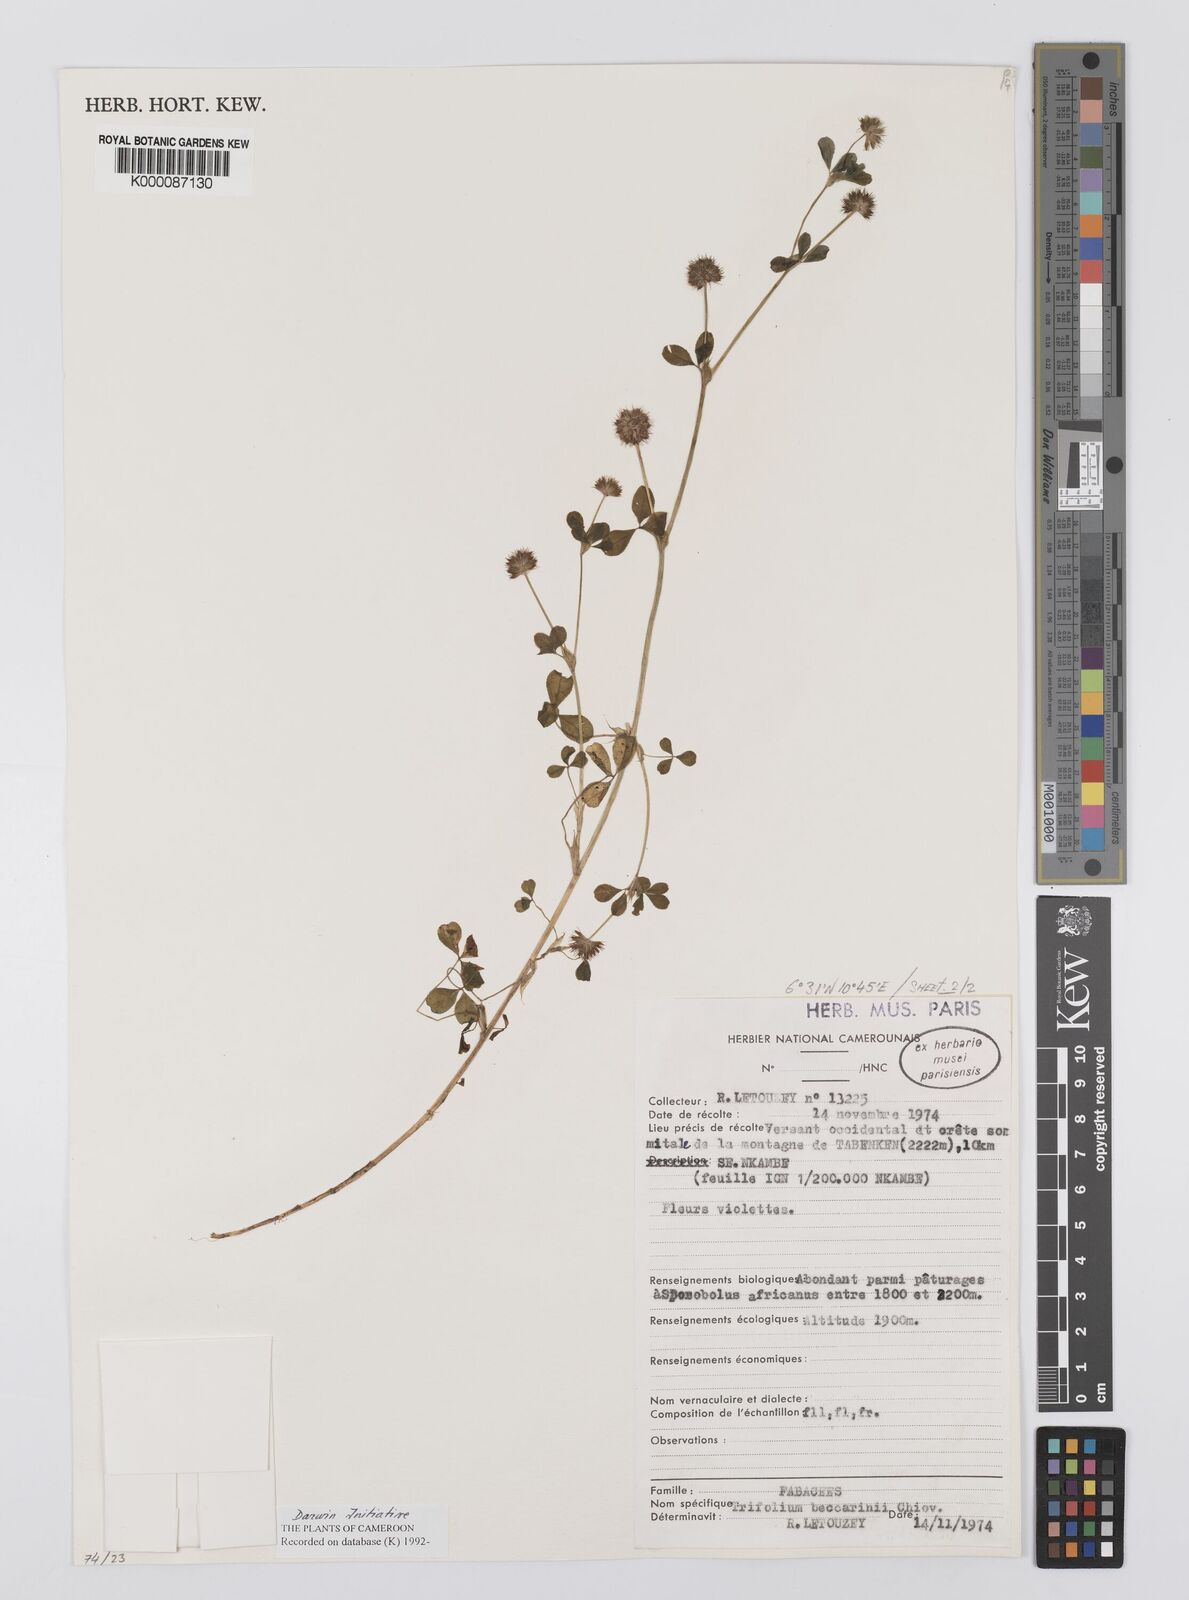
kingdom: Plantae
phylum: Tracheophyta
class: Magnoliopsida
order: Fabales
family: Fabaceae
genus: Trifolium
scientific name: Trifolium baccarinii
